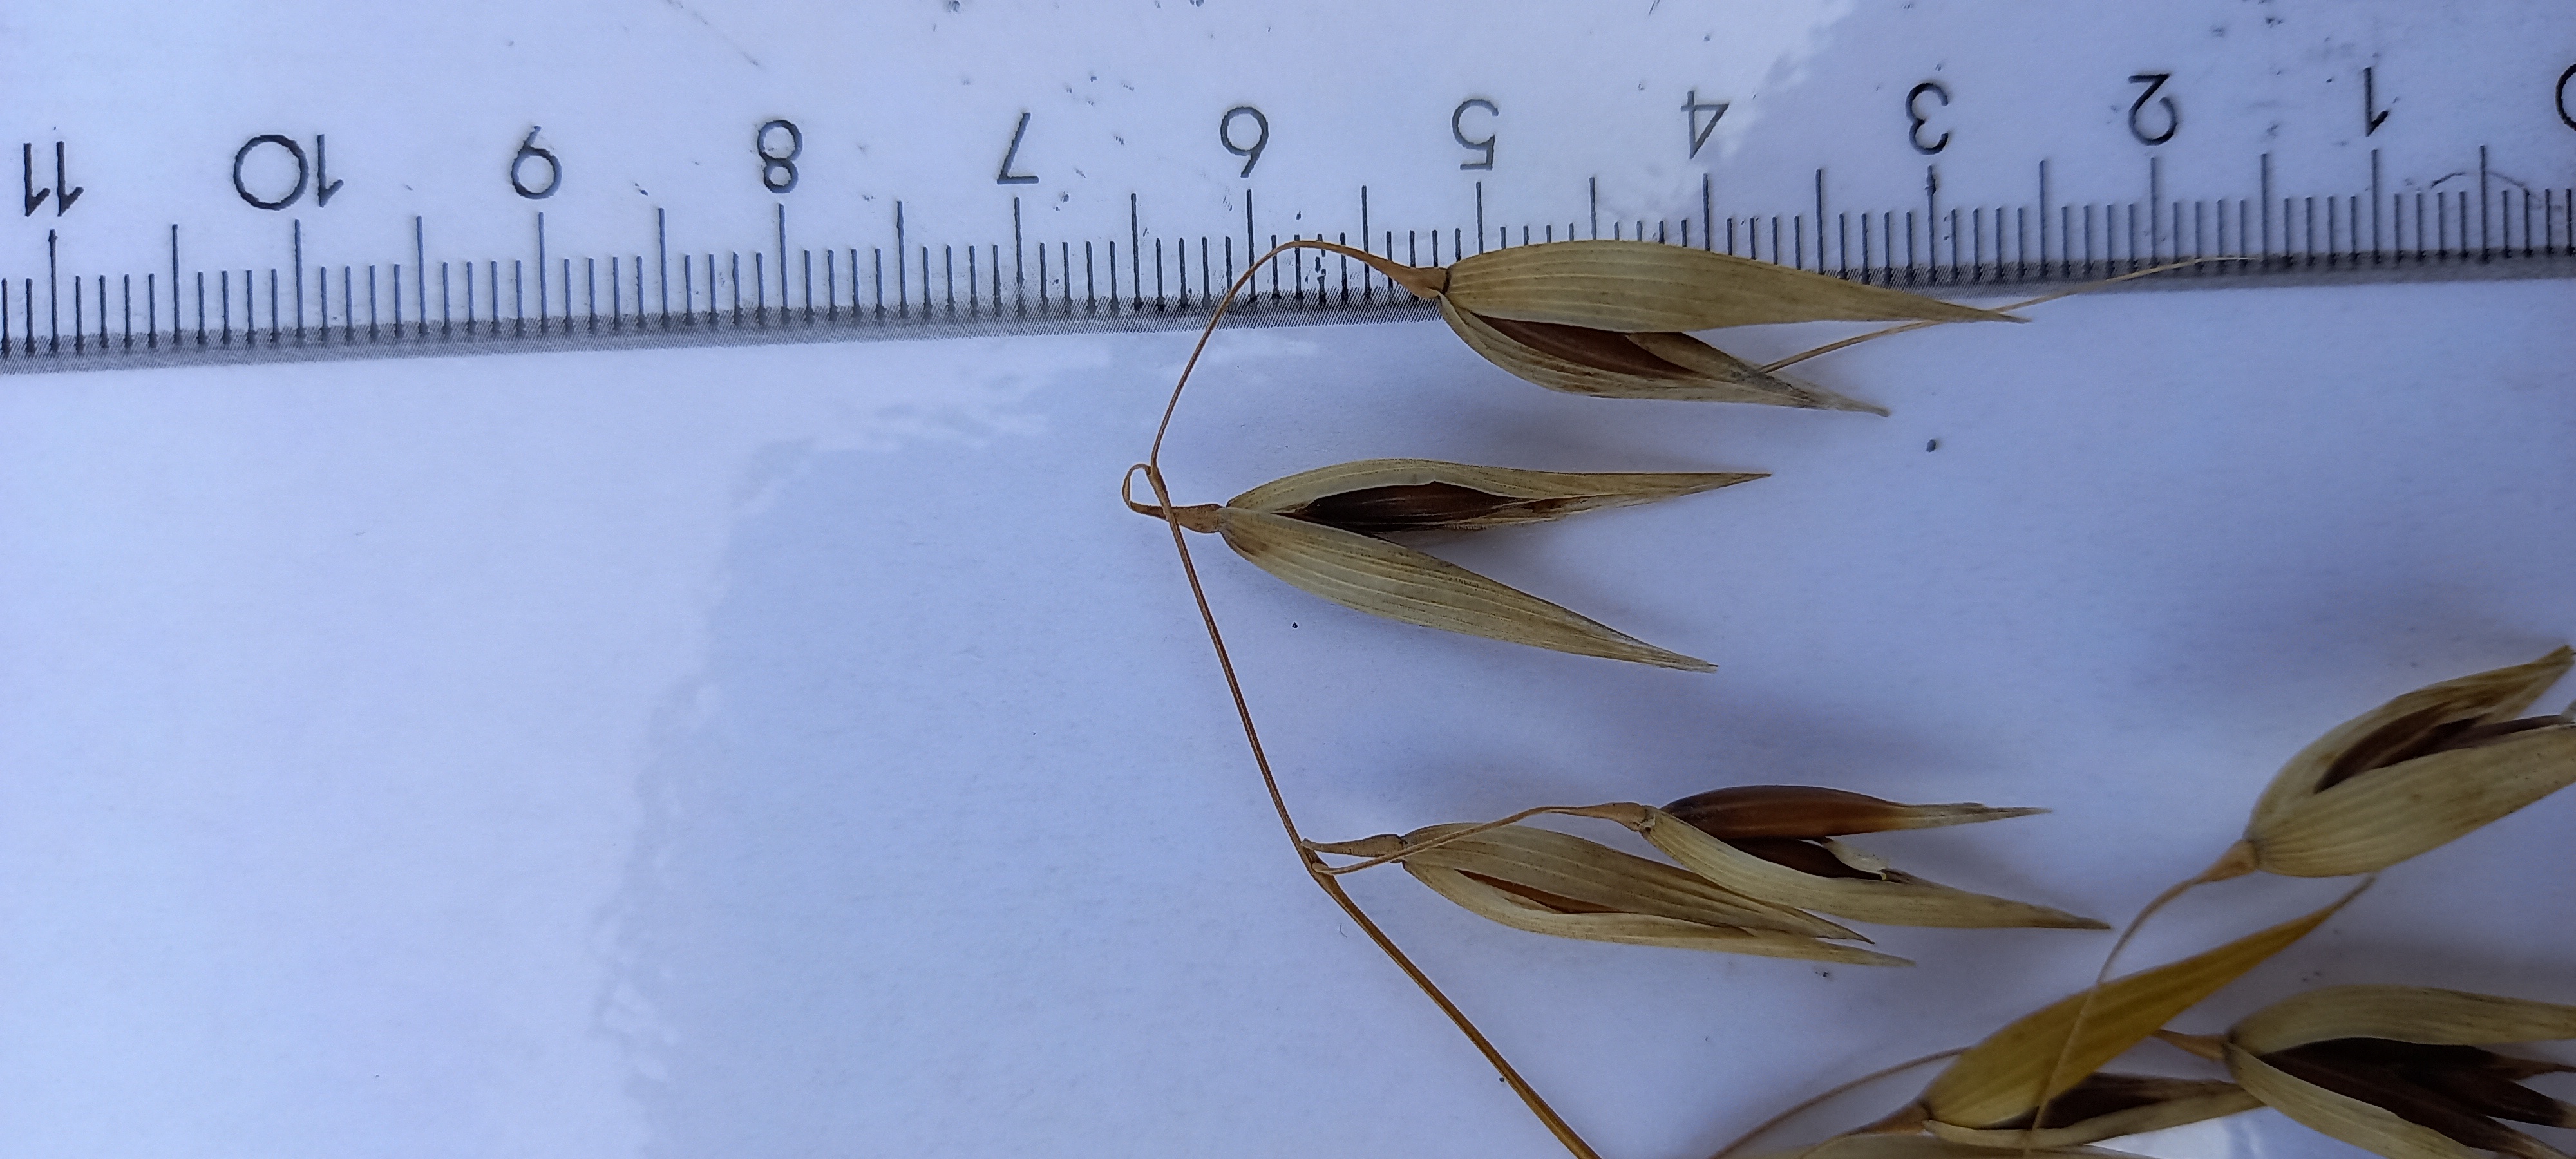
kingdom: Plantae
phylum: Tracheophyta
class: Liliopsida
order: Poales
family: Poaceae
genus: Avena
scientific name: Avena sativa
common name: Oat
